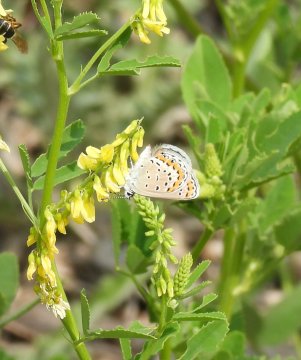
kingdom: Animalia
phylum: Arthropoda
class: Insecta
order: Lepidoptera
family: Lycaenidae
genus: Lycaeides
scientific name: Lycaeides melissa
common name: Melissa Blue
